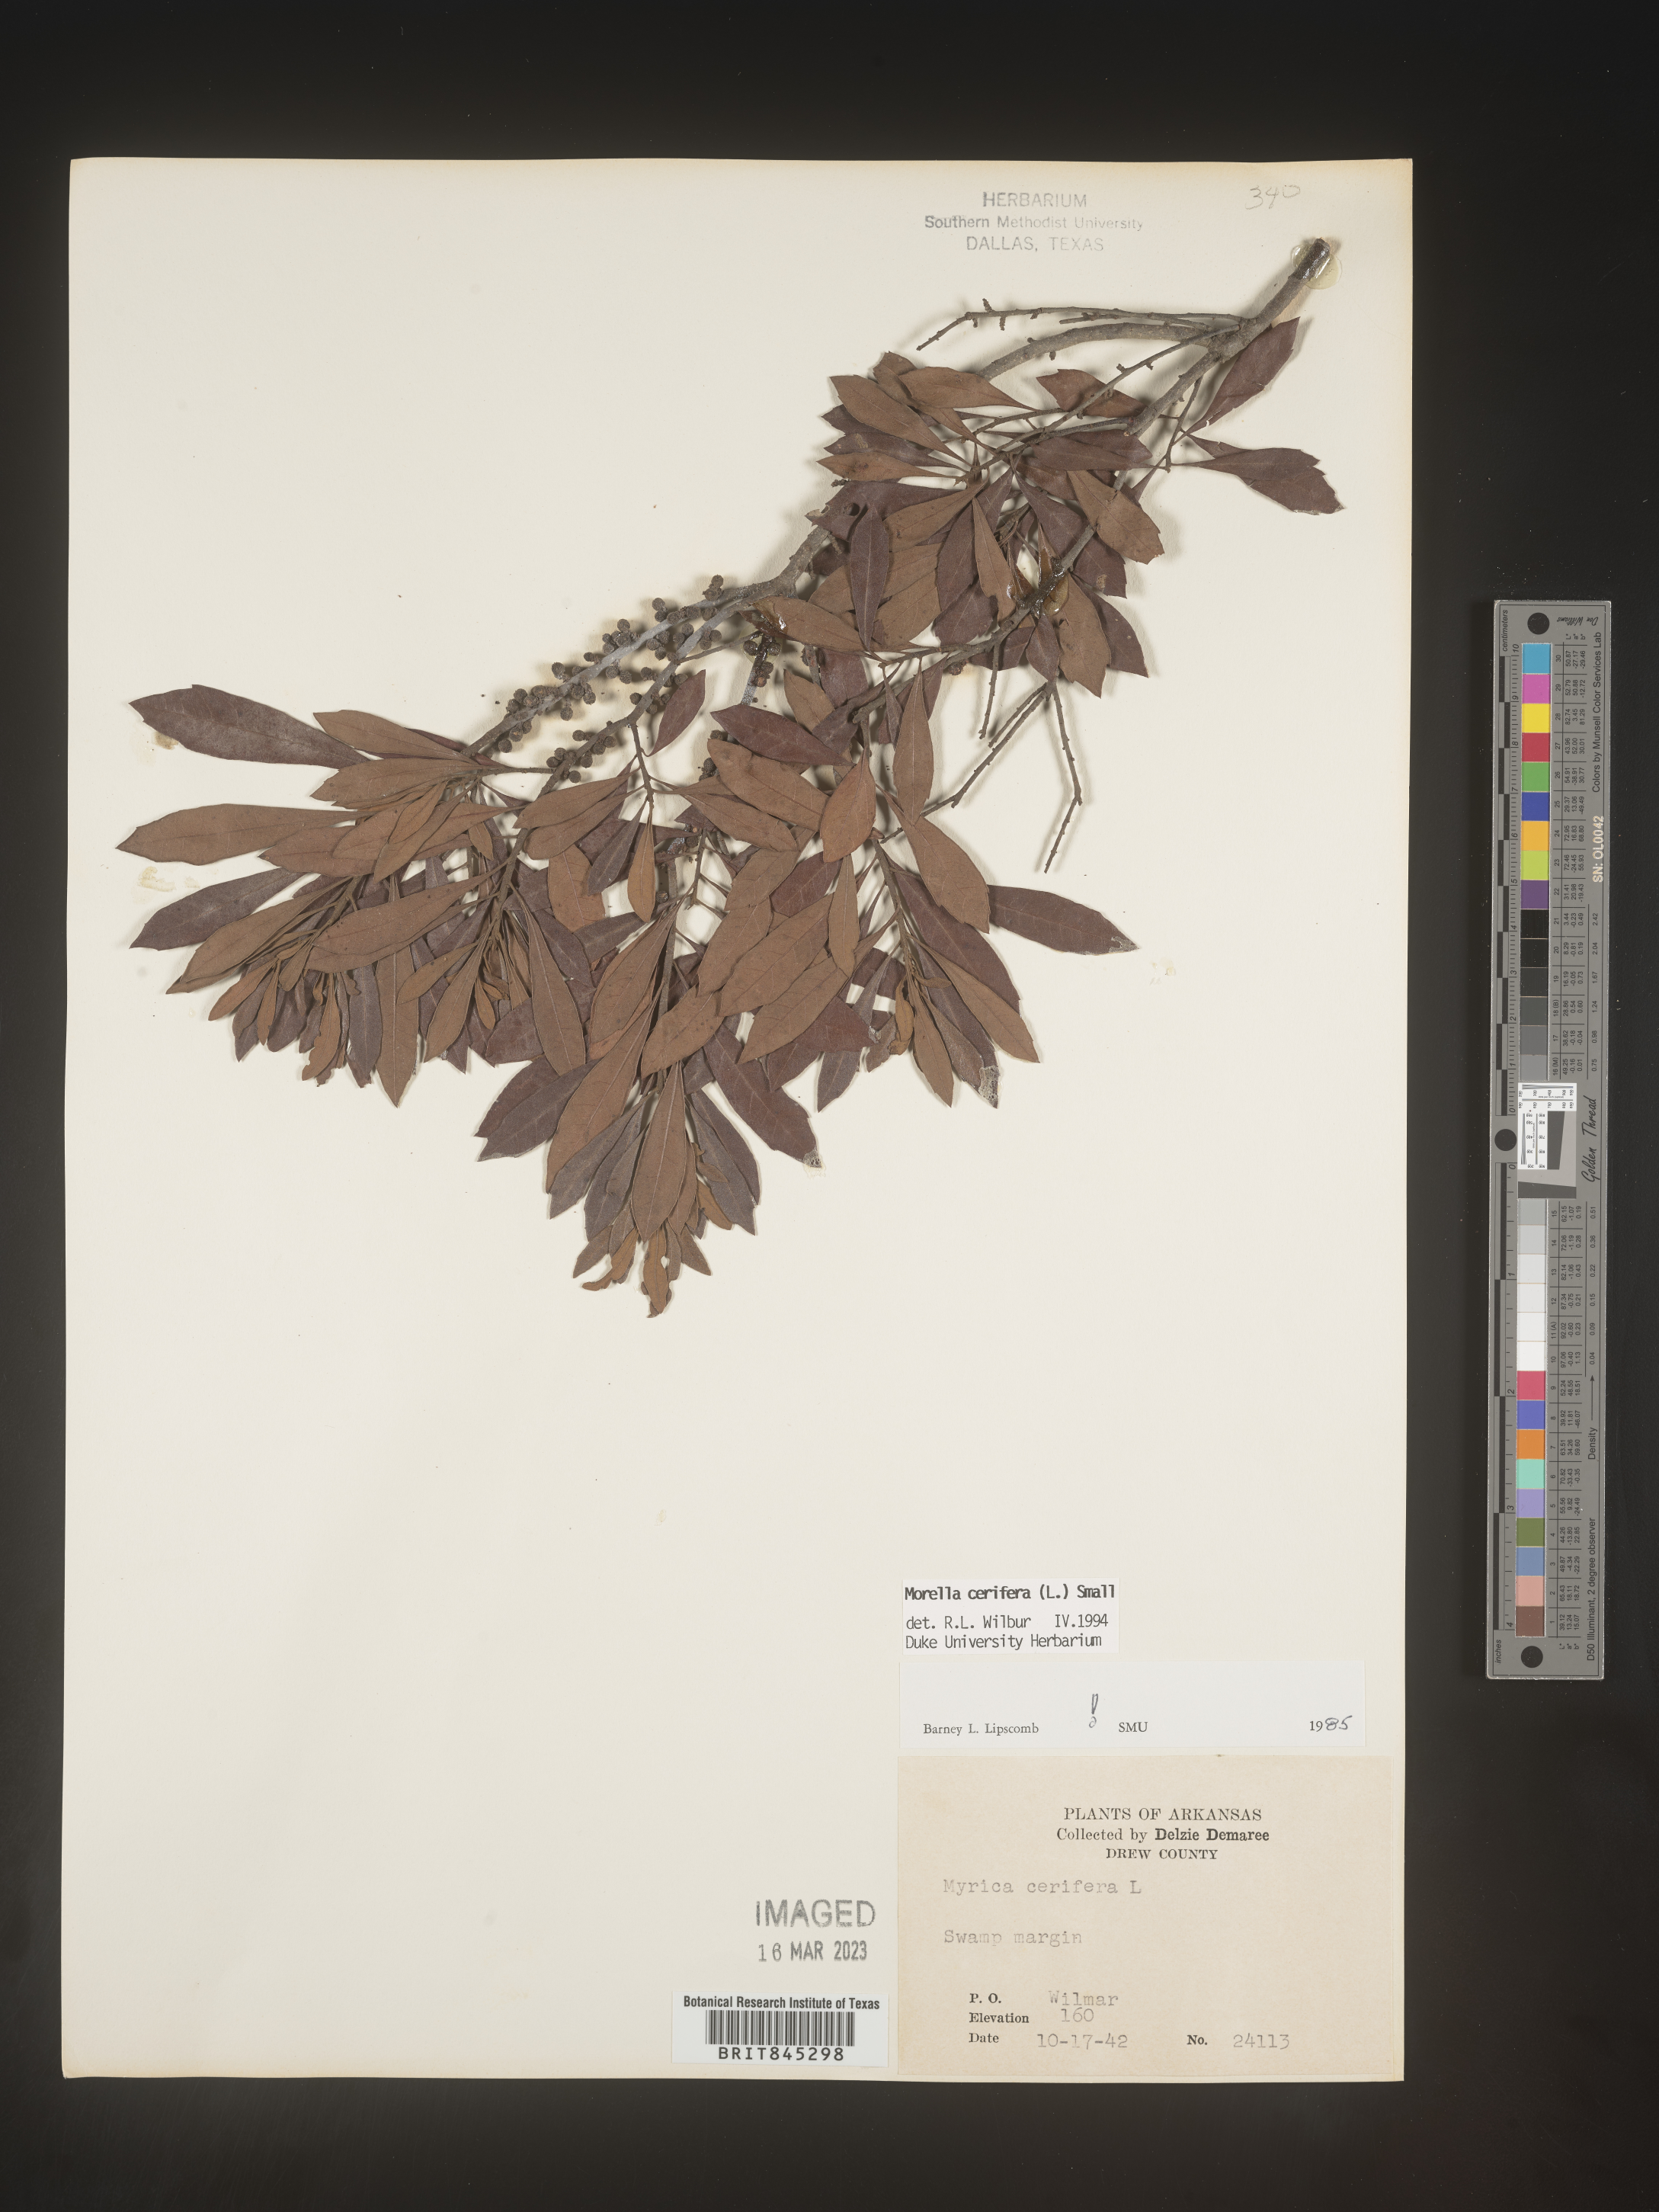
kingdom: Plantae
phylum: Tracheophyta
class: Magnoliopsida
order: Fagales
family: Myricaceae
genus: Morella
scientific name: Morella cerifera
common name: Wax myrtle
